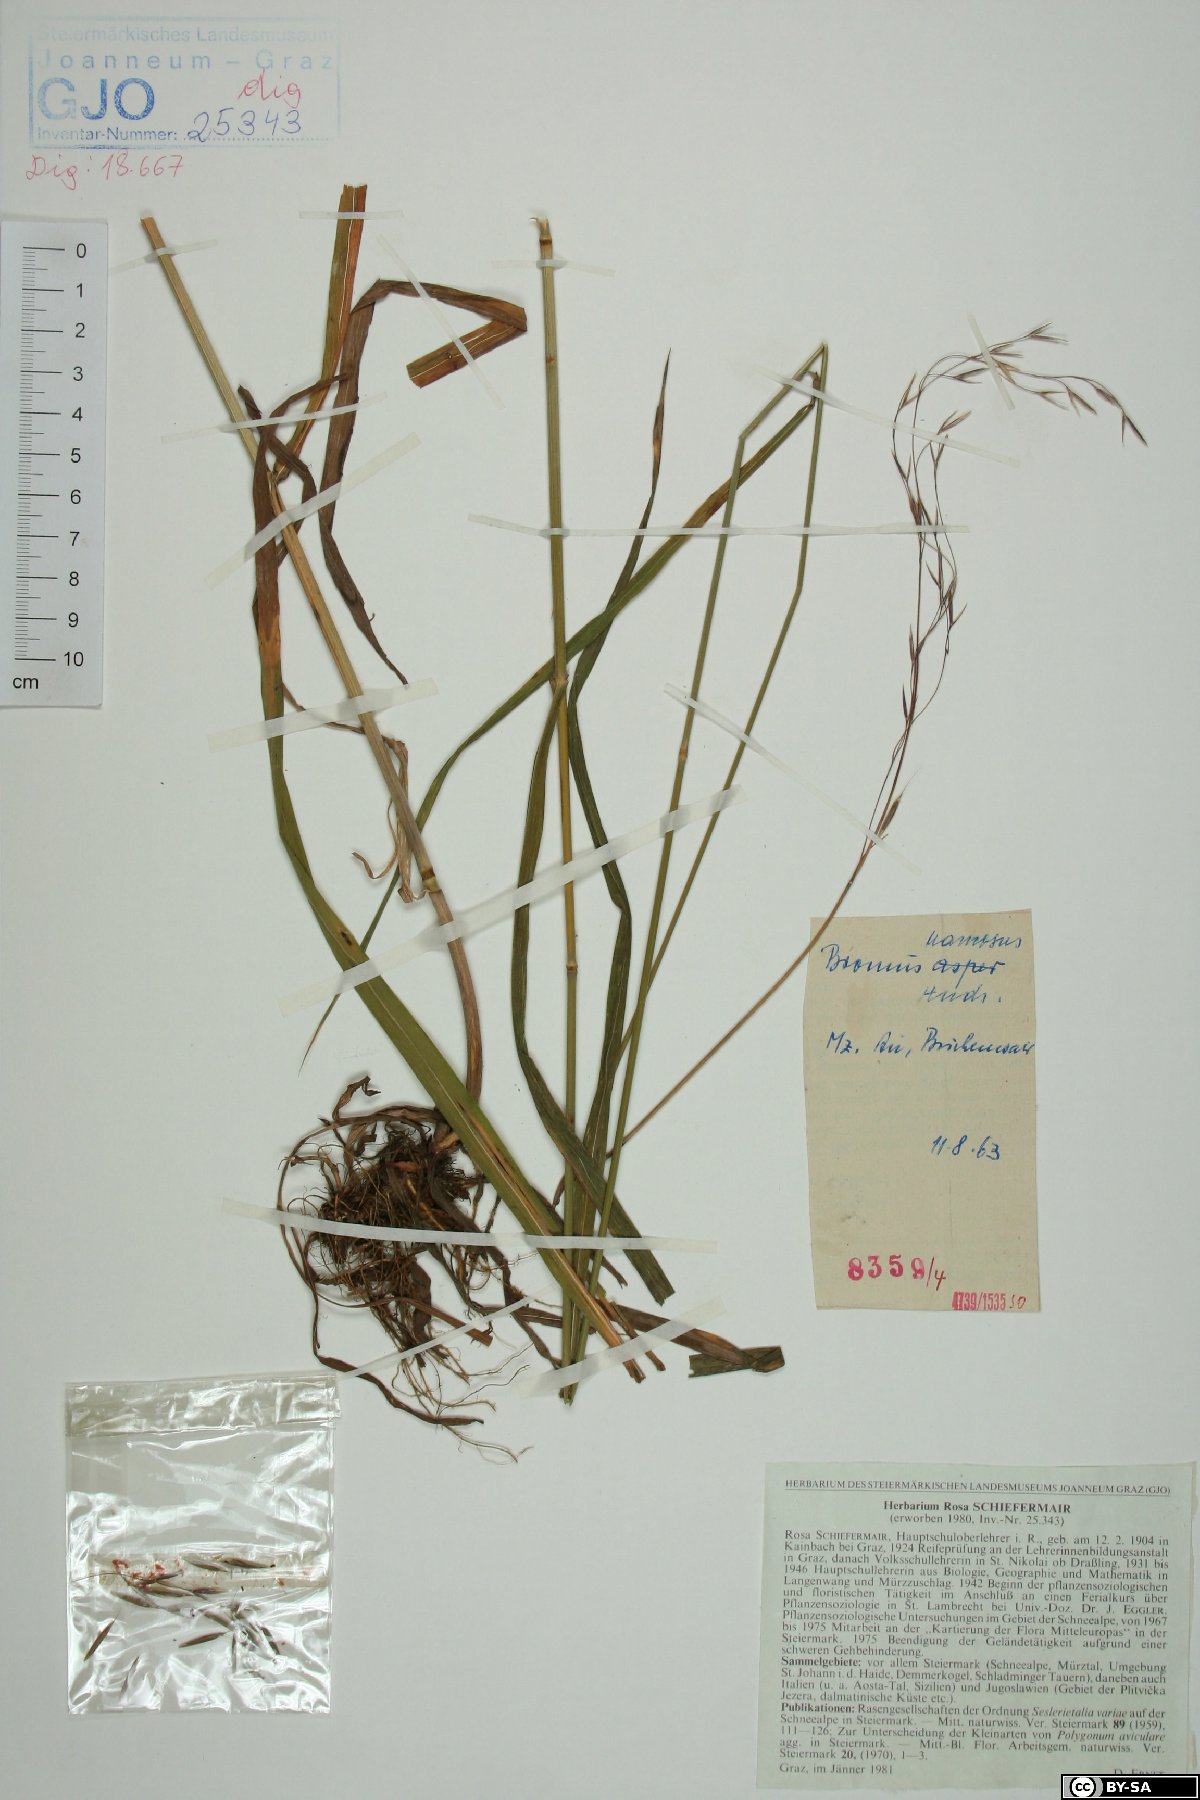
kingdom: Plantae
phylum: Tracheophyta
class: Liliopsida
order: Poales
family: Poaceae
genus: Bromus
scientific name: Bromus ramosus
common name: Hairy brome
